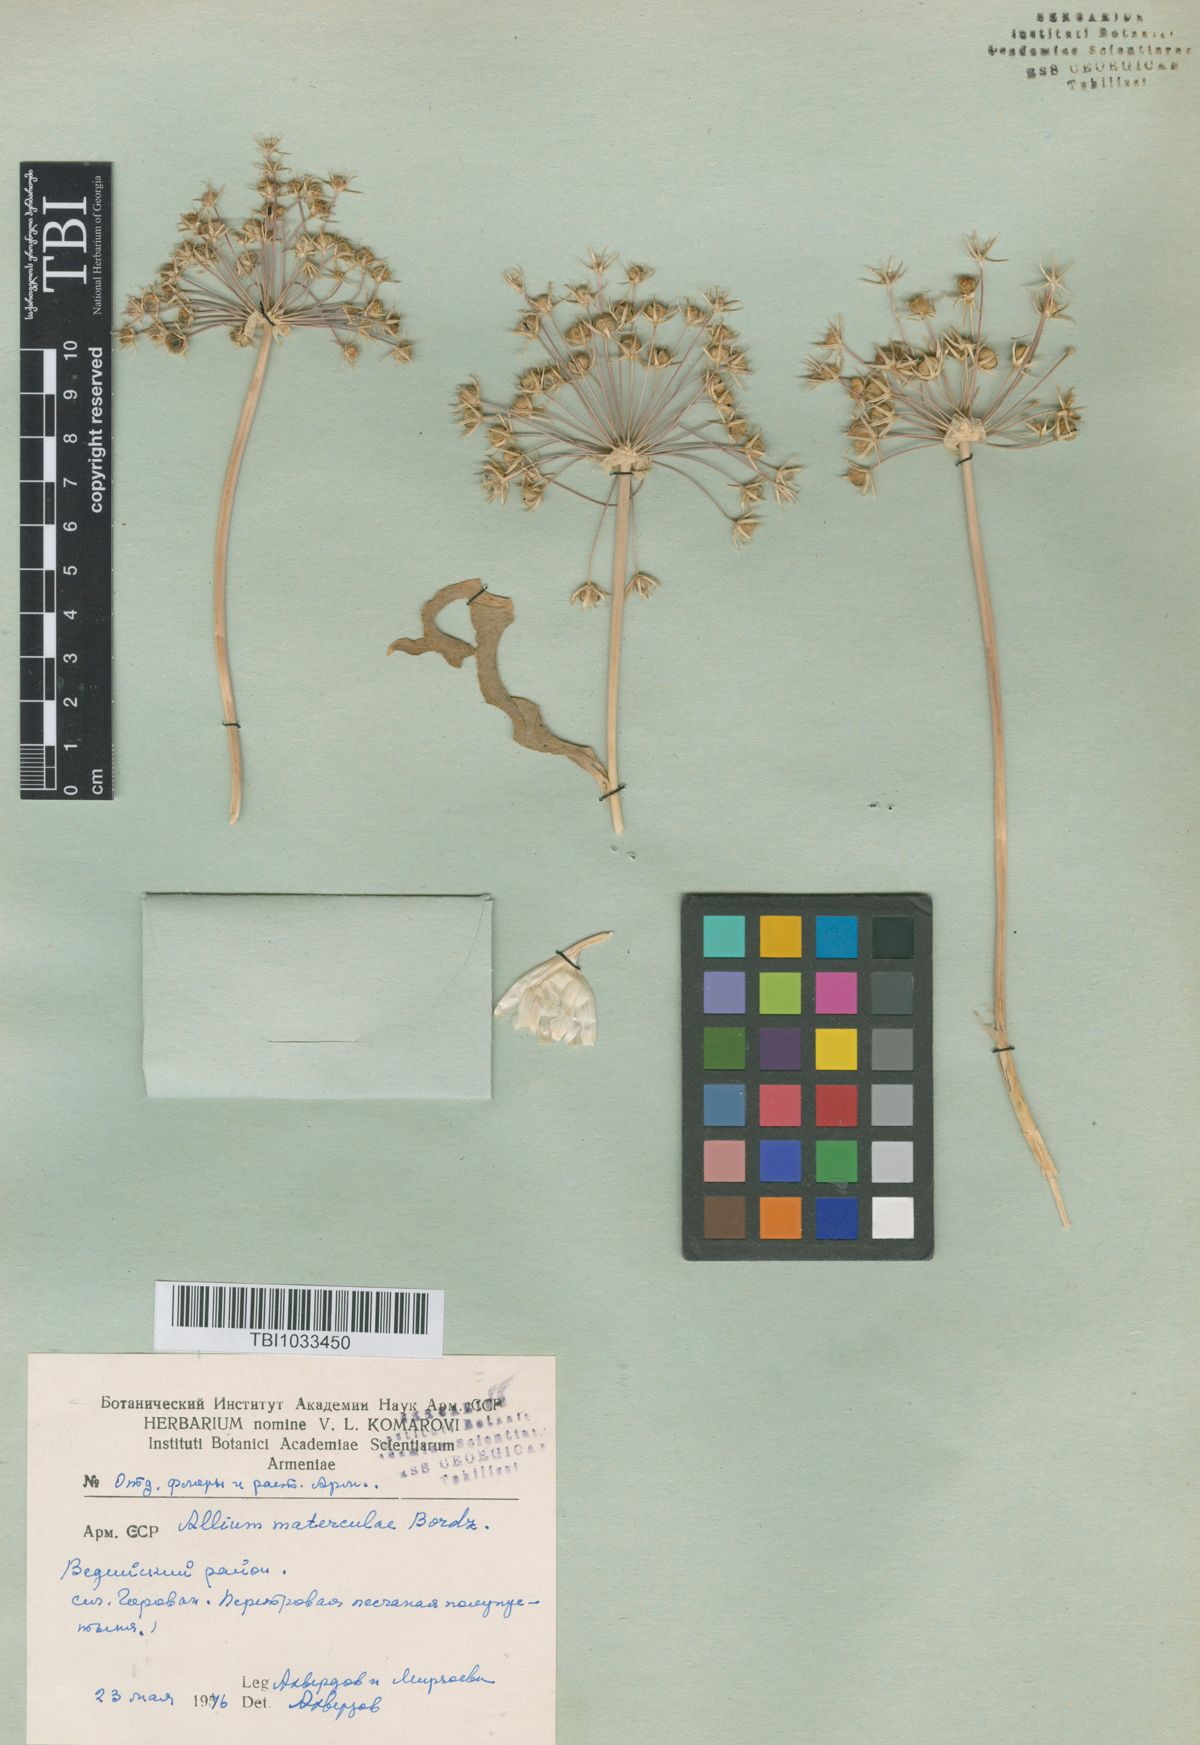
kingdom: Plantae
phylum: Tracheophyta
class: Liliopsida
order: Asparagales
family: Amaryllidaceae
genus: Allium
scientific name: Allium materculae
